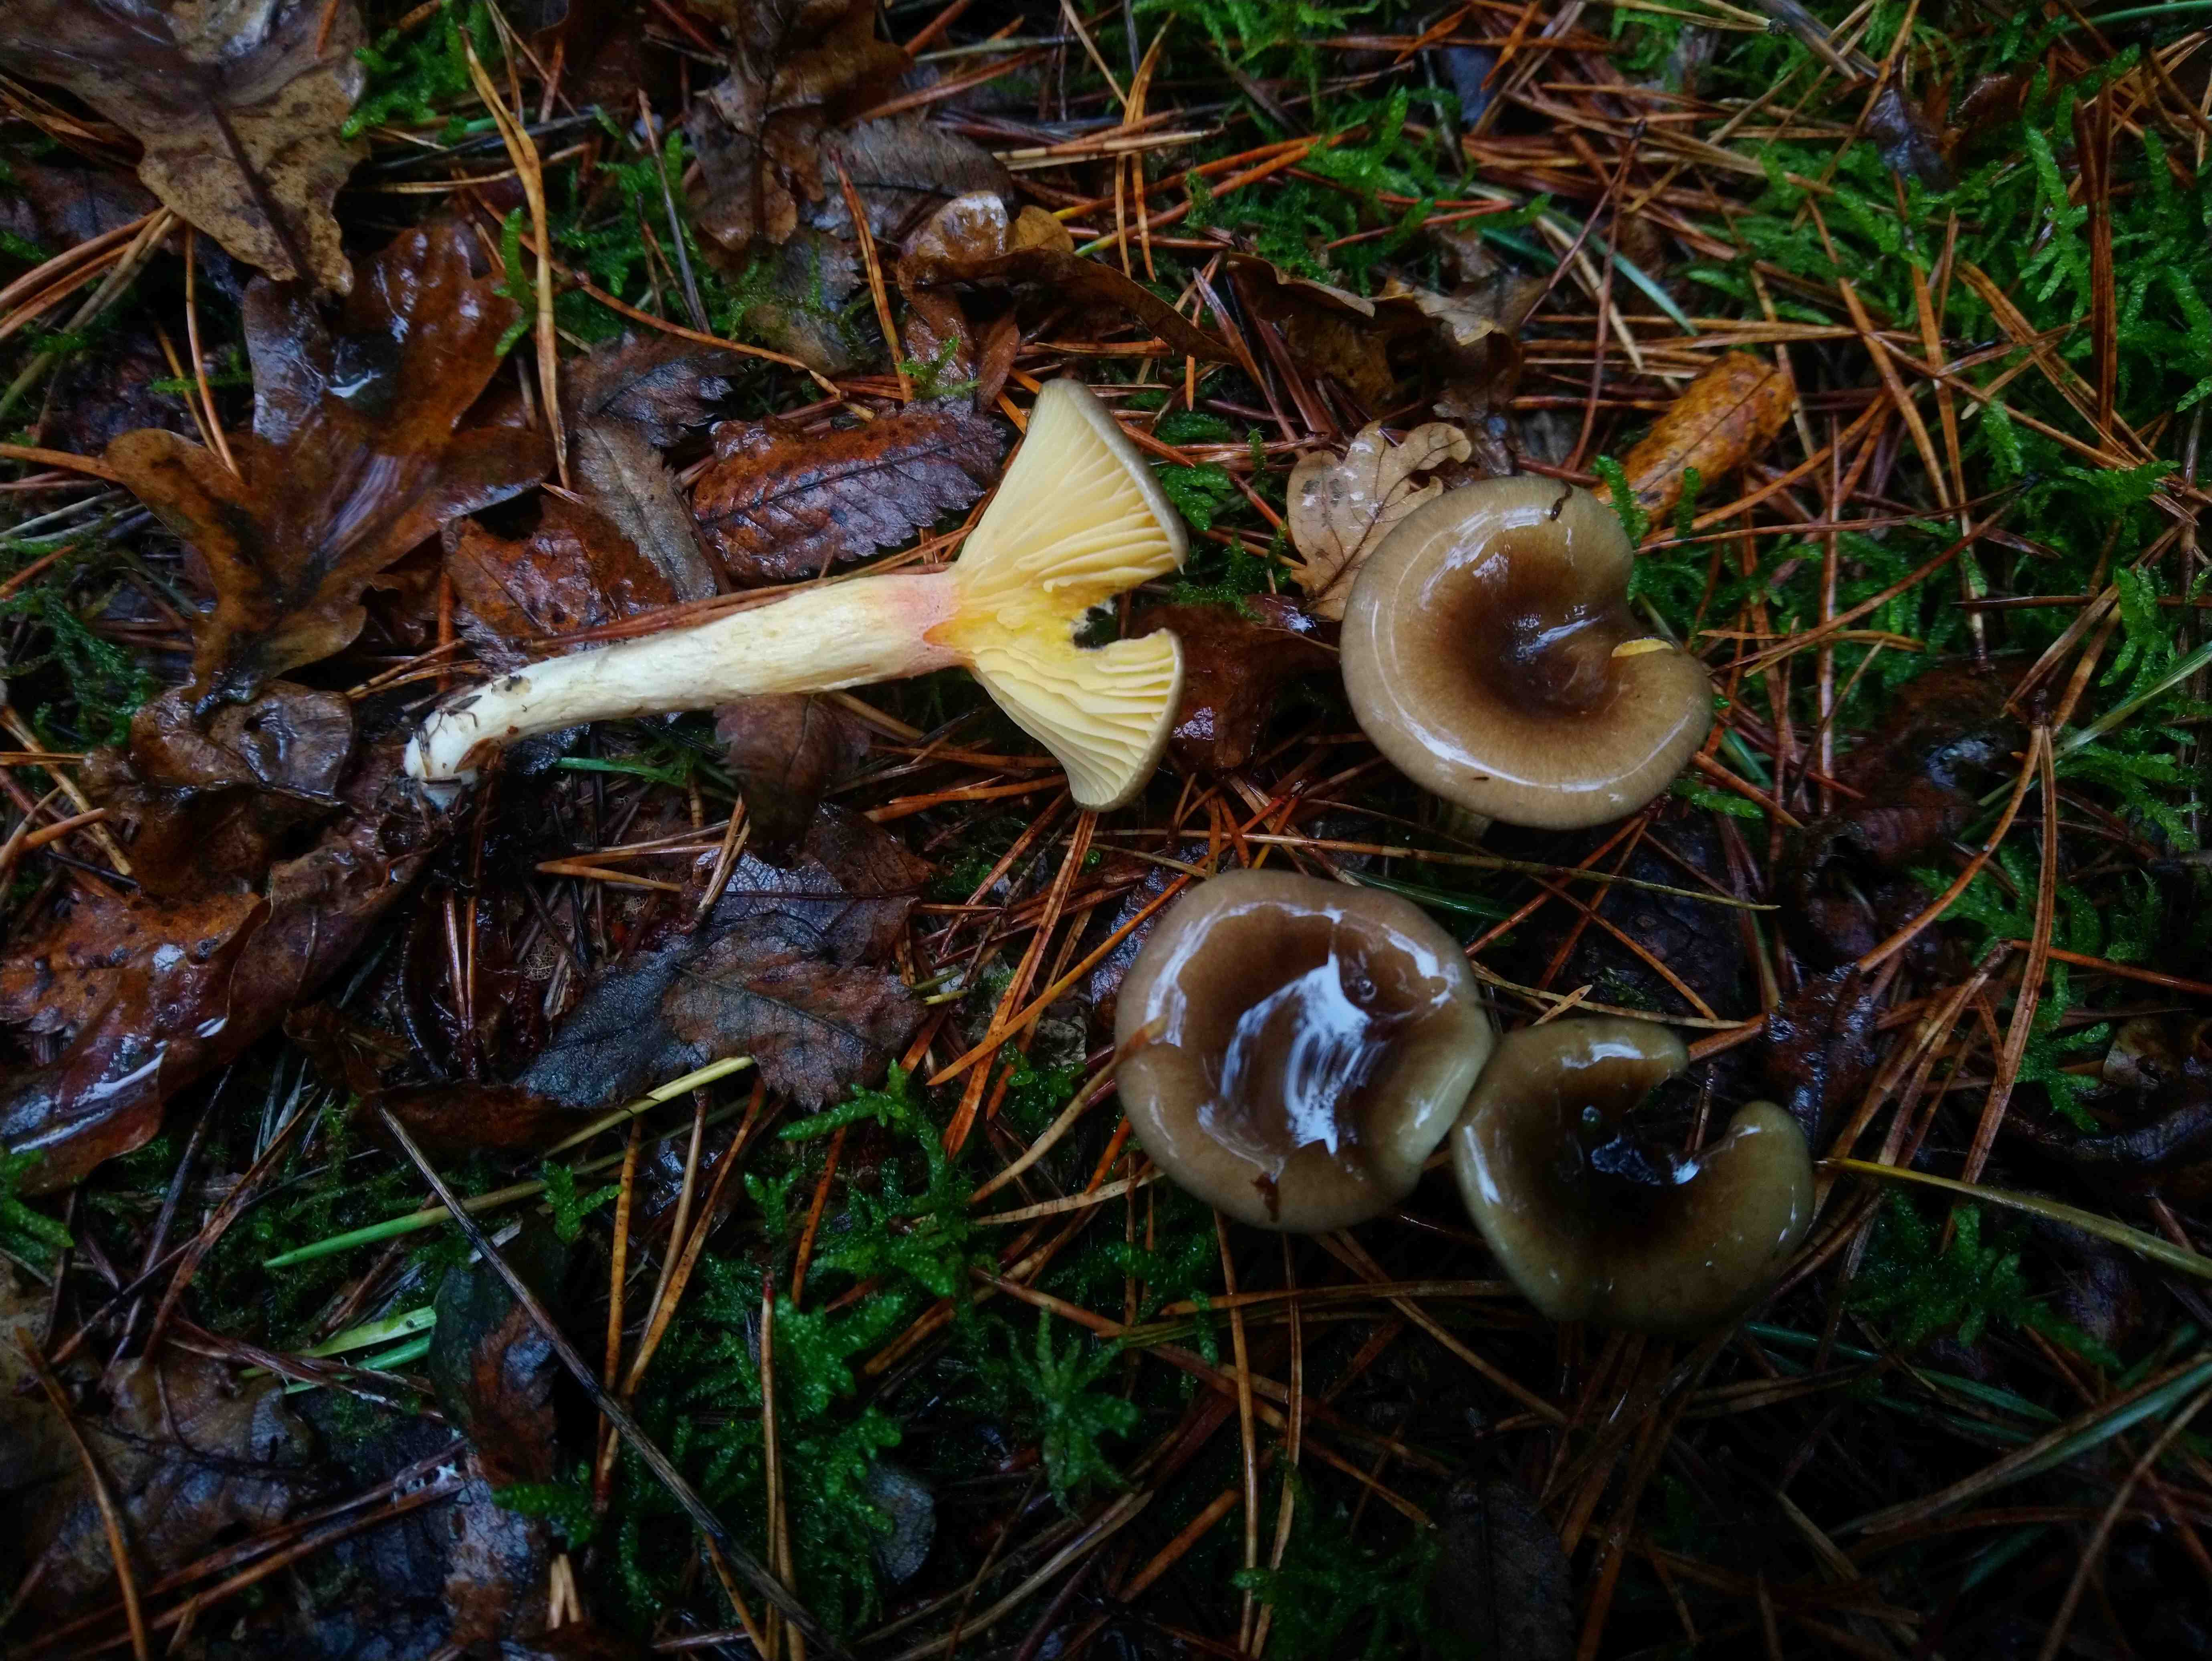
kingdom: Fungi
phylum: Basidiomycota
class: Agaricomycetes
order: Agaricales
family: Hygrophoraceae
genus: Hygrophorus
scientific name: Hygrophorus hypothejus
